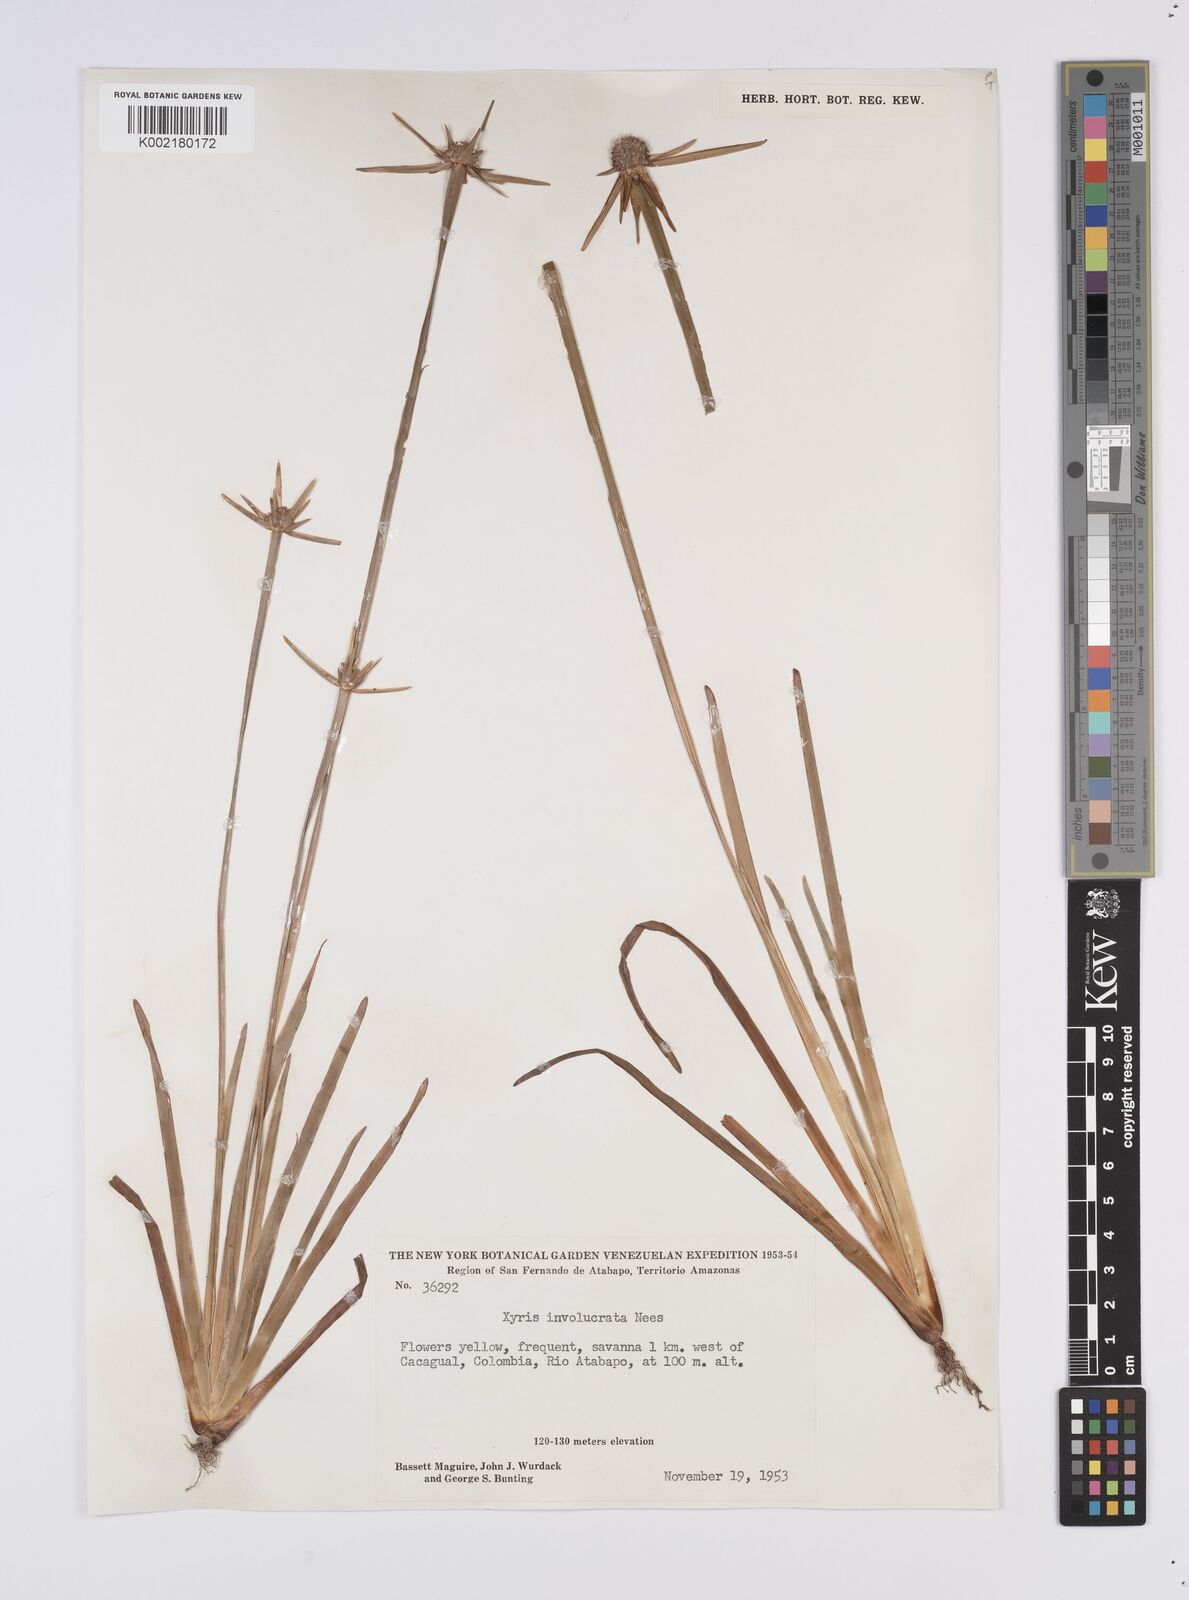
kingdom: Plantae
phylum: Tracheophyta
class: Liliopsida
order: Poales
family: Xyridaceae
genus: Xyris
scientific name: Xyris involucrata
